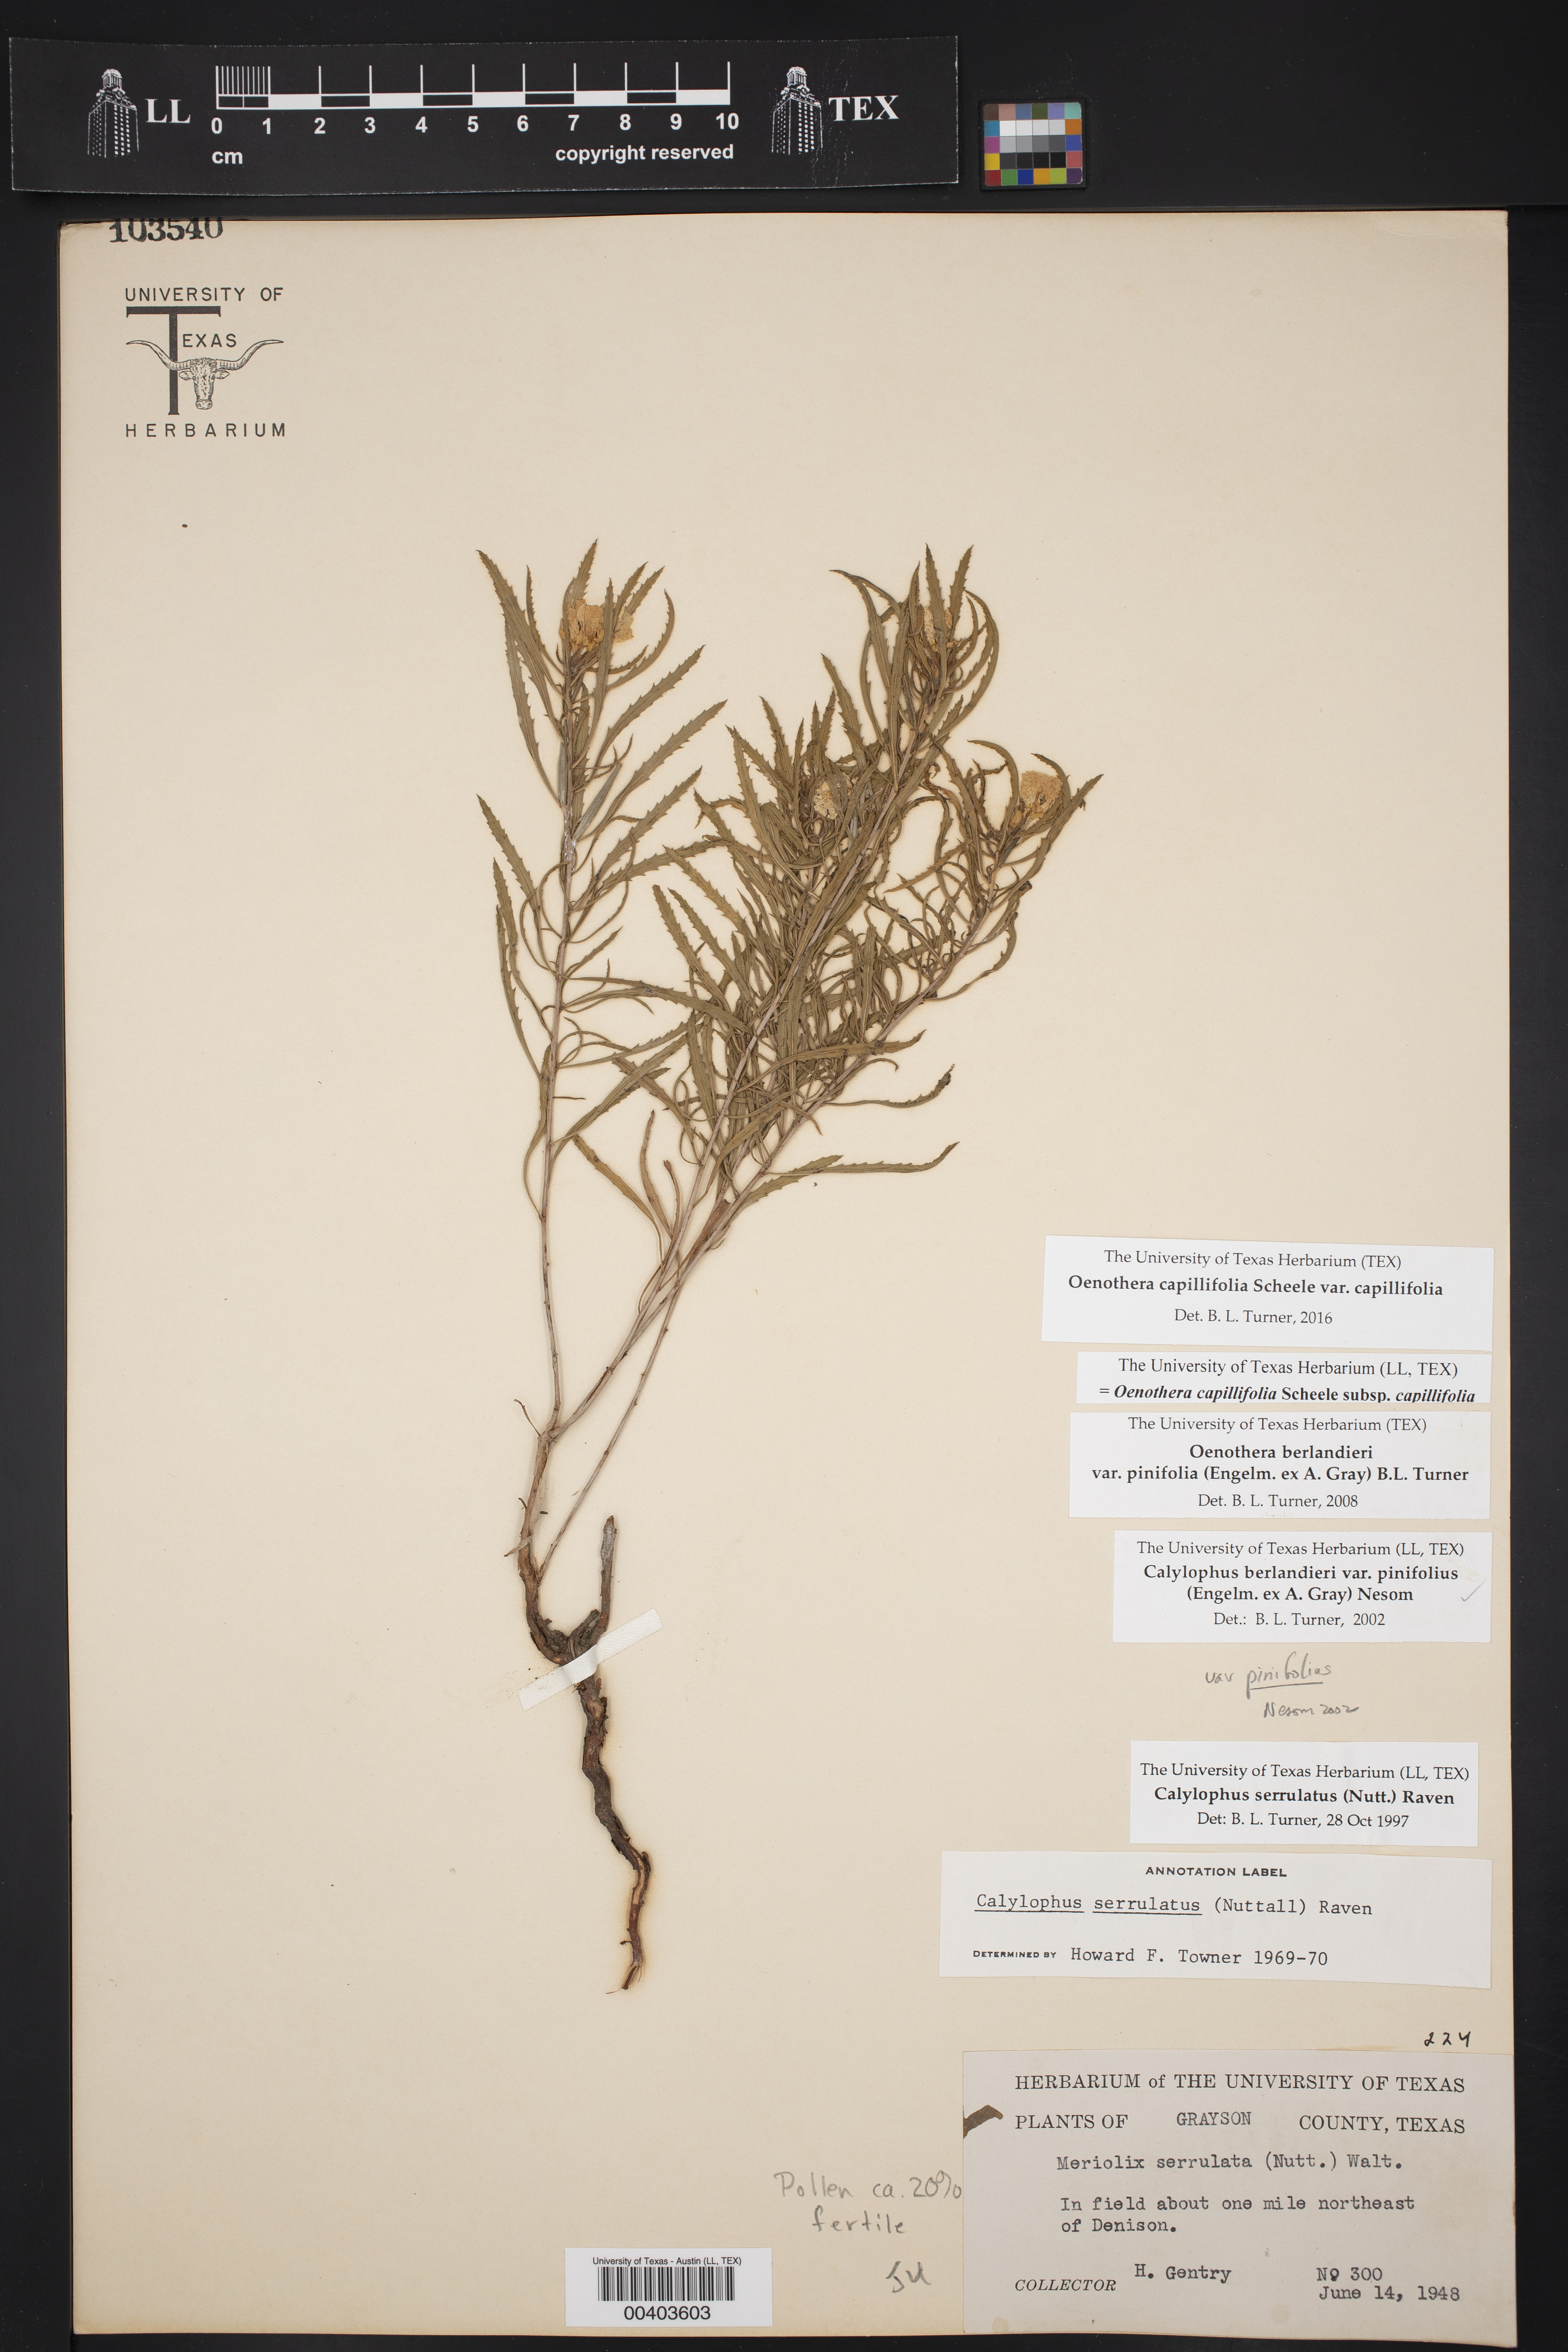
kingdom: Plantae
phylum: Tracheophyta
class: Magnoliopsida
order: Myrtales
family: Onagraceae
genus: Oenothera
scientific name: Oenothera capillifolia
